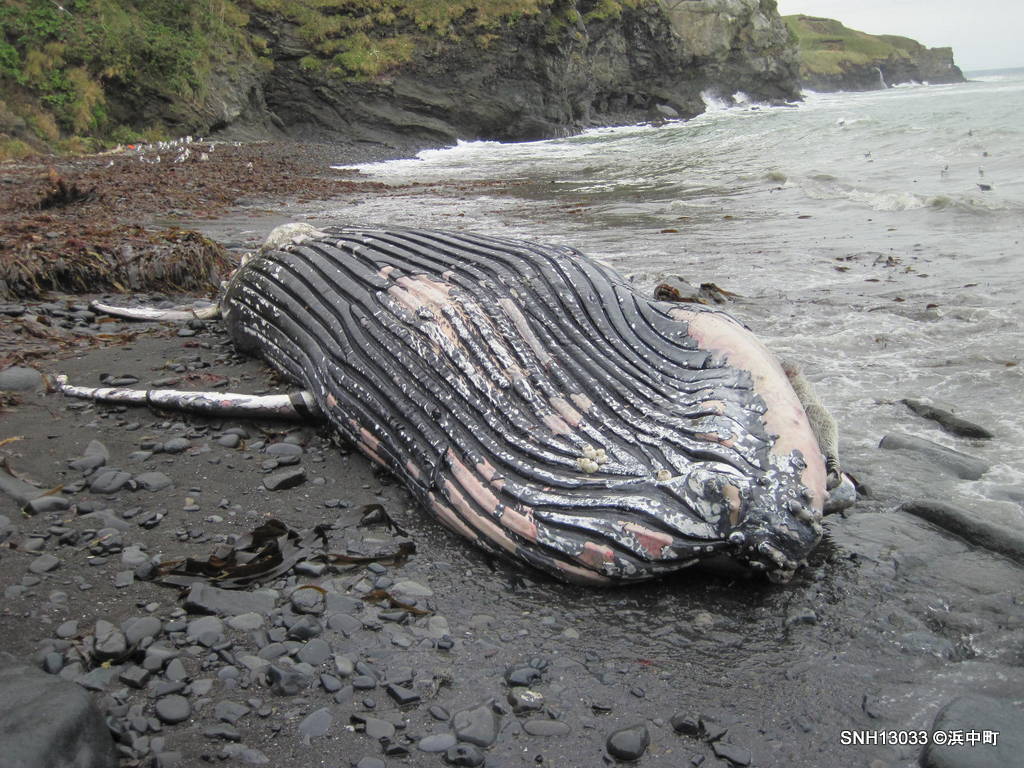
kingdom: Animalia
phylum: Chordata
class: Mammalia
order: Cetacea
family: Balaenopteridae
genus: Megaptera
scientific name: Megaptera novaeangliae
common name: Humpback whale
